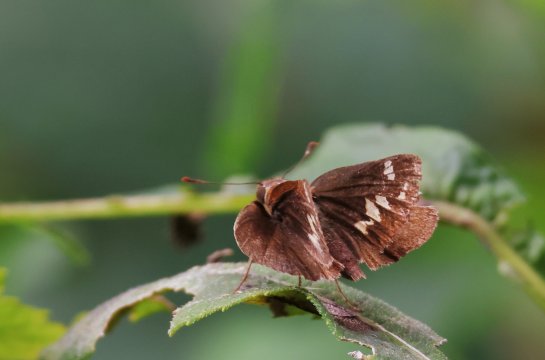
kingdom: Animalia
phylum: Arthropoda
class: Insecta
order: Lepidoptera
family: Hesperiidae
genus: Lon
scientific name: Lon zabulon
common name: Zabulon Skipper
